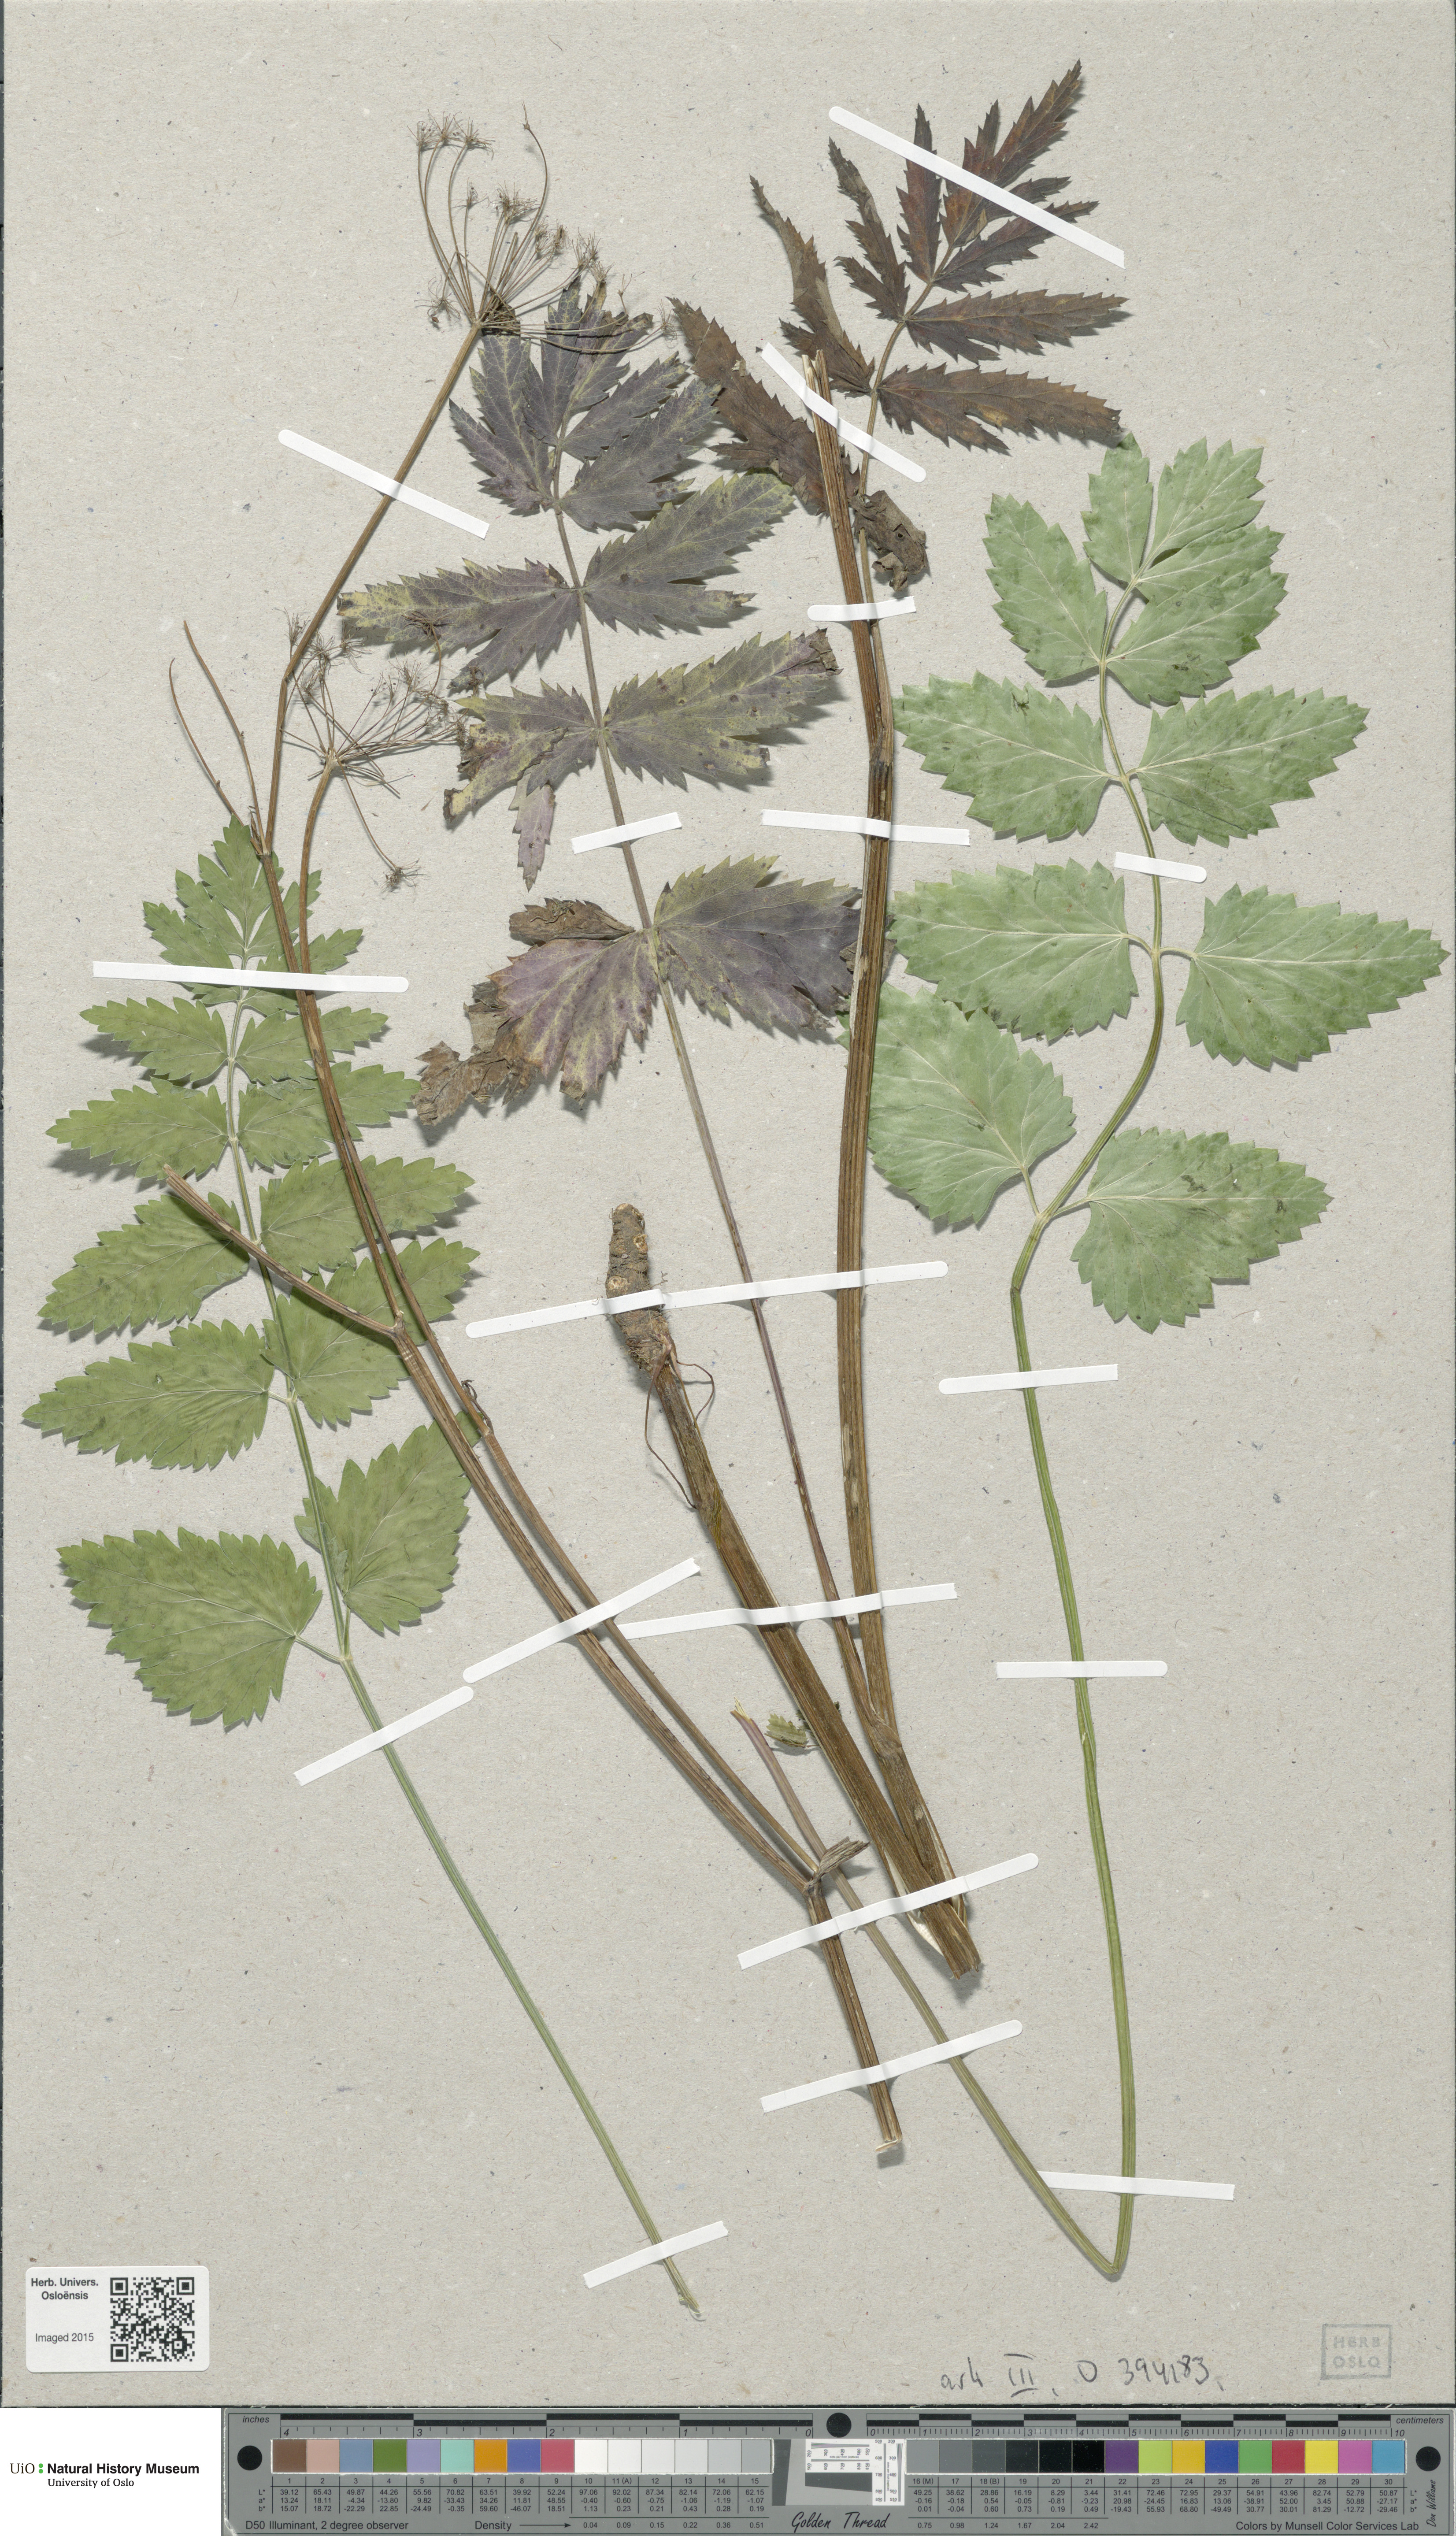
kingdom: Plantae
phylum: Tracheophyta
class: Magnoliopsida
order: Apiales
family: Apiaceae
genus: Pimpinella
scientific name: Pimpinella major
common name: Greater burnet-saxifrage
